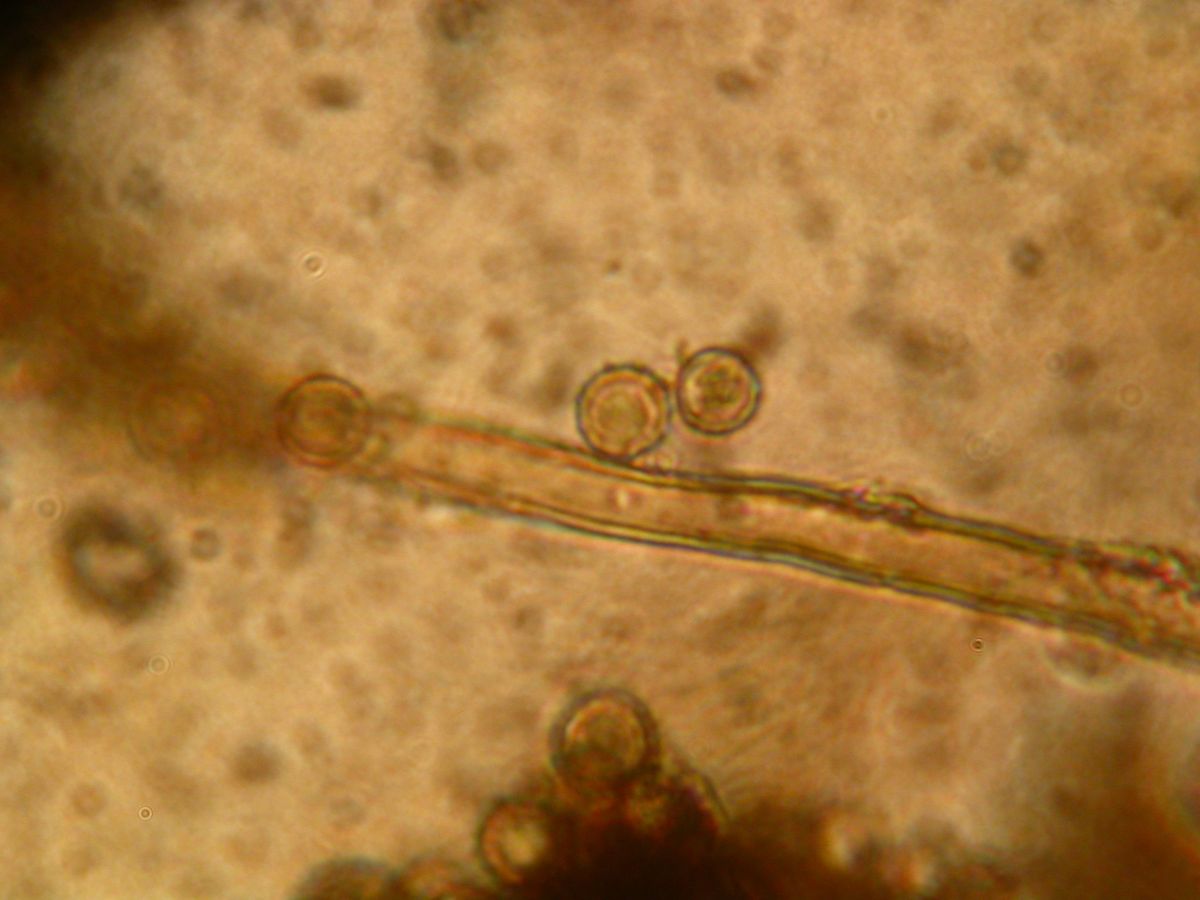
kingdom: Fungi
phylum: Basidiomycota
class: Agaricomycetes
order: Agaricales
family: Lycoperdaceae
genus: Lycoperdon
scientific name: Lycoperdon lividum
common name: mark-støvbold
